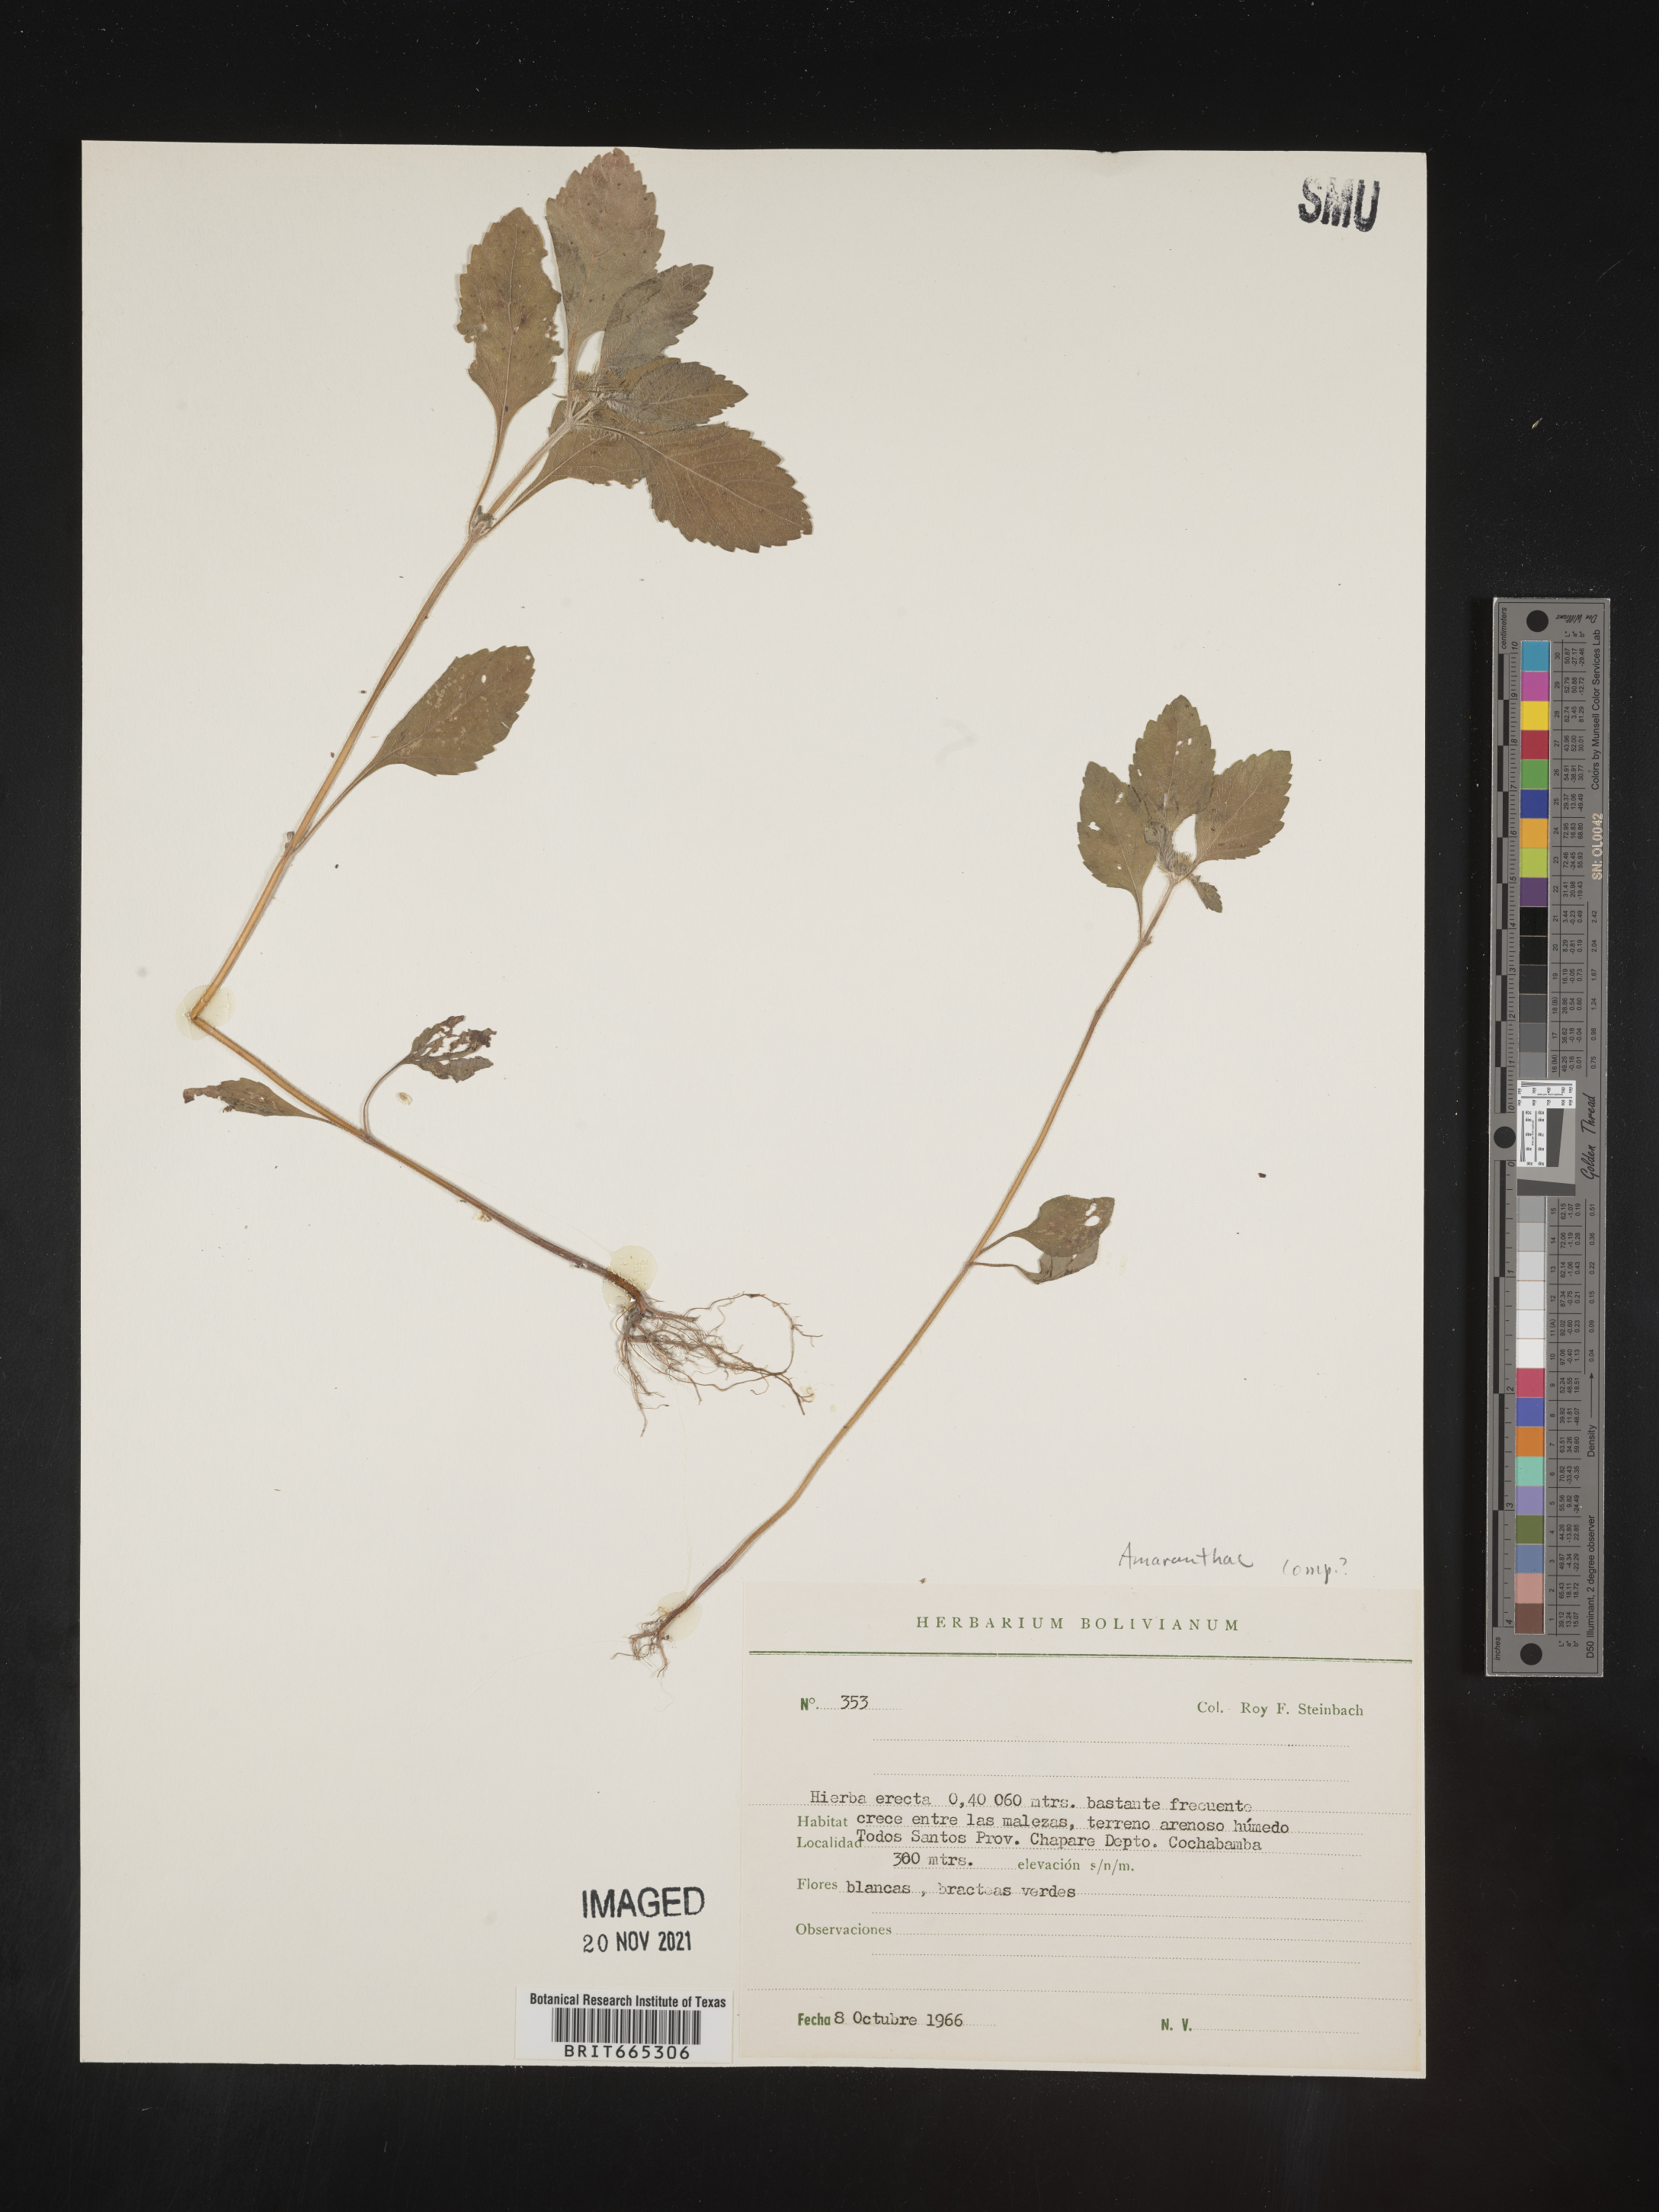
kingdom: Plantae
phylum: Tracheophyta
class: Magnoliopsida
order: Caryophyllales
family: Amaranthaceae
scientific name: Amaranthaceae
